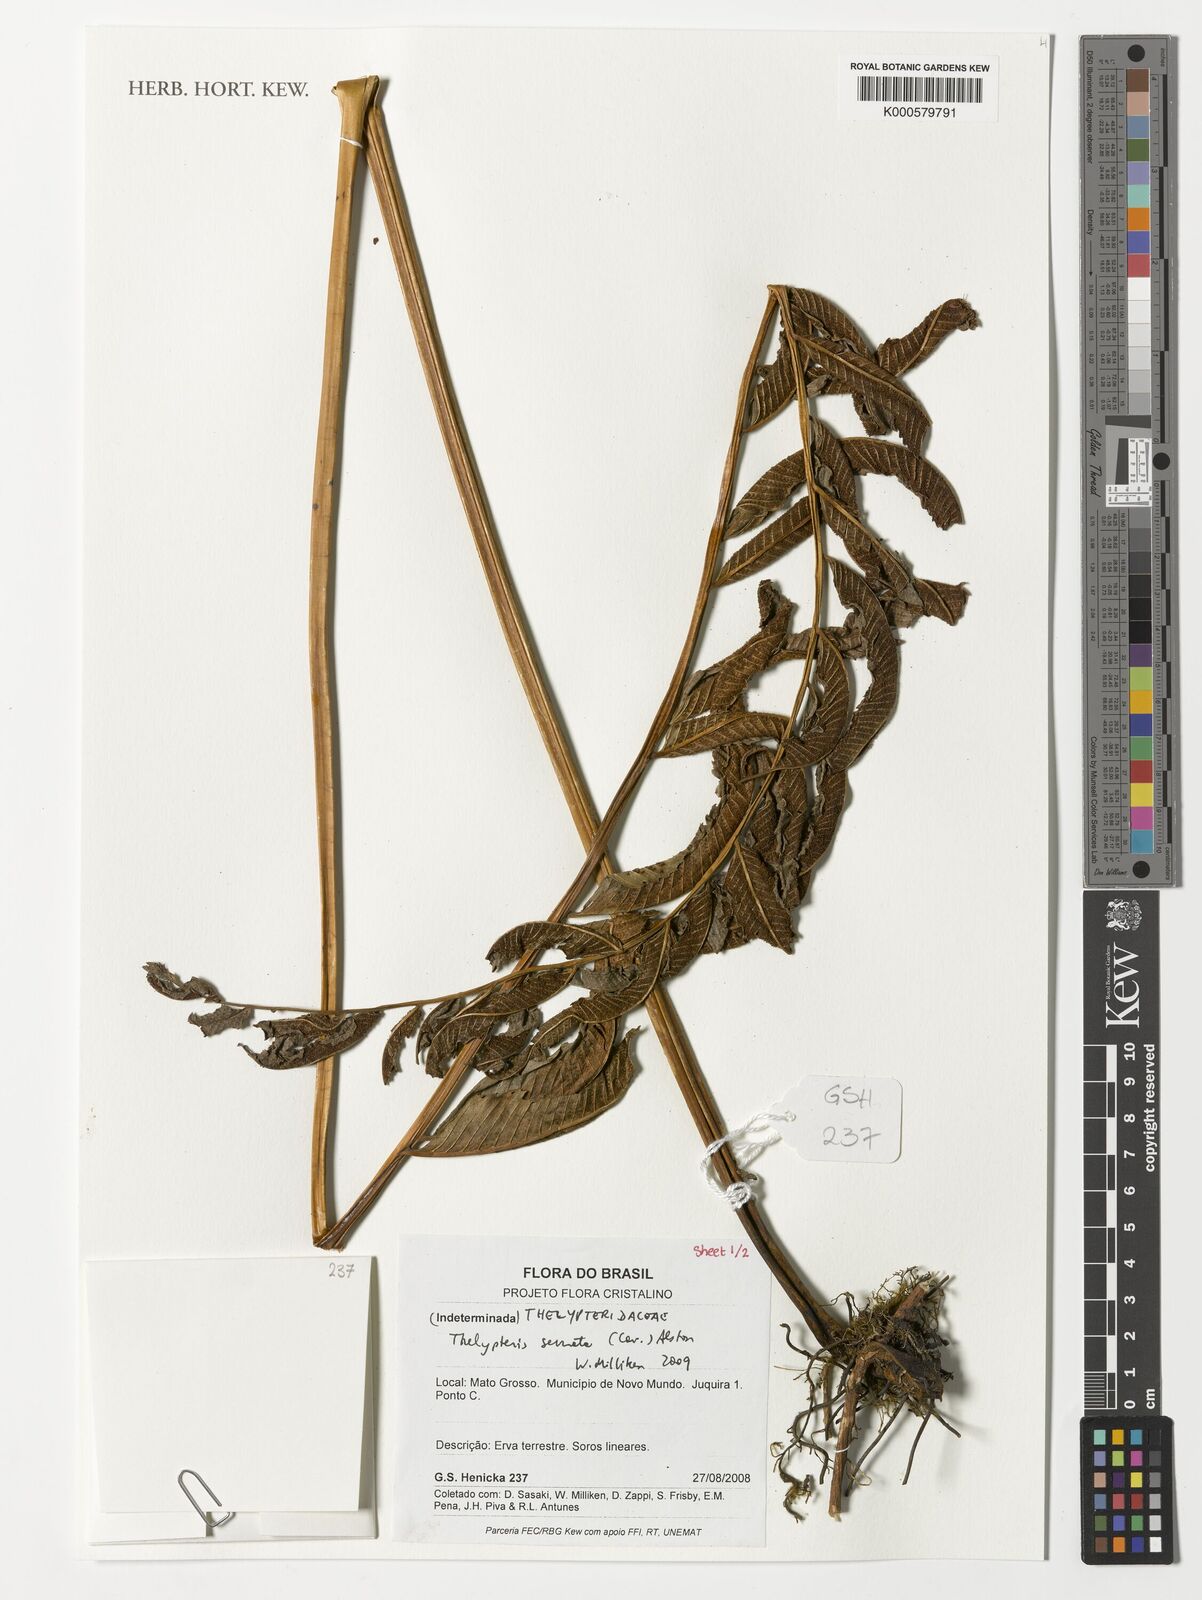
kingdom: Plantae
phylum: Tracheophyta
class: Polypodiopsida
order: Polypodiales
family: Thelypteridaceae
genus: Meniscium
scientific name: Meniscium serratum
